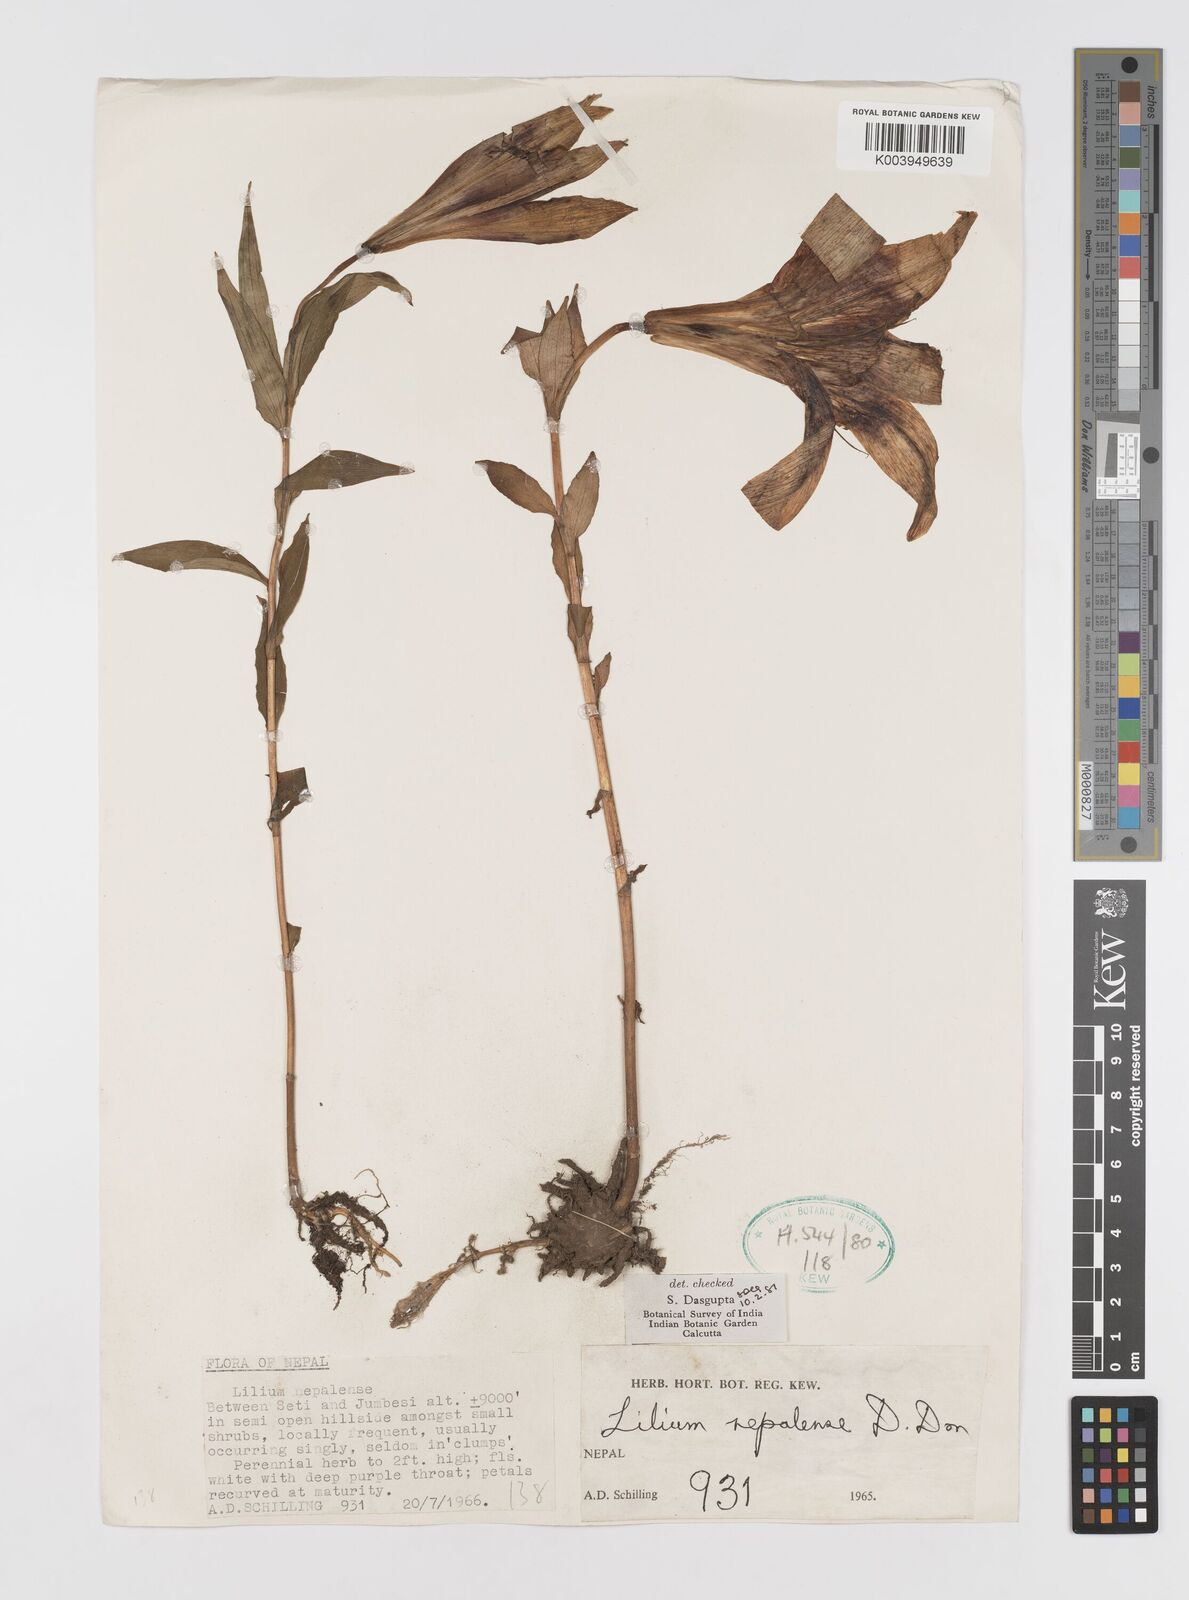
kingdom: Plantae
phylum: Tracheophyta
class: Liliopsida
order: Liliales
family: Liliaceae
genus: Lilium
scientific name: Lilium nepalense
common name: Nepal lily
